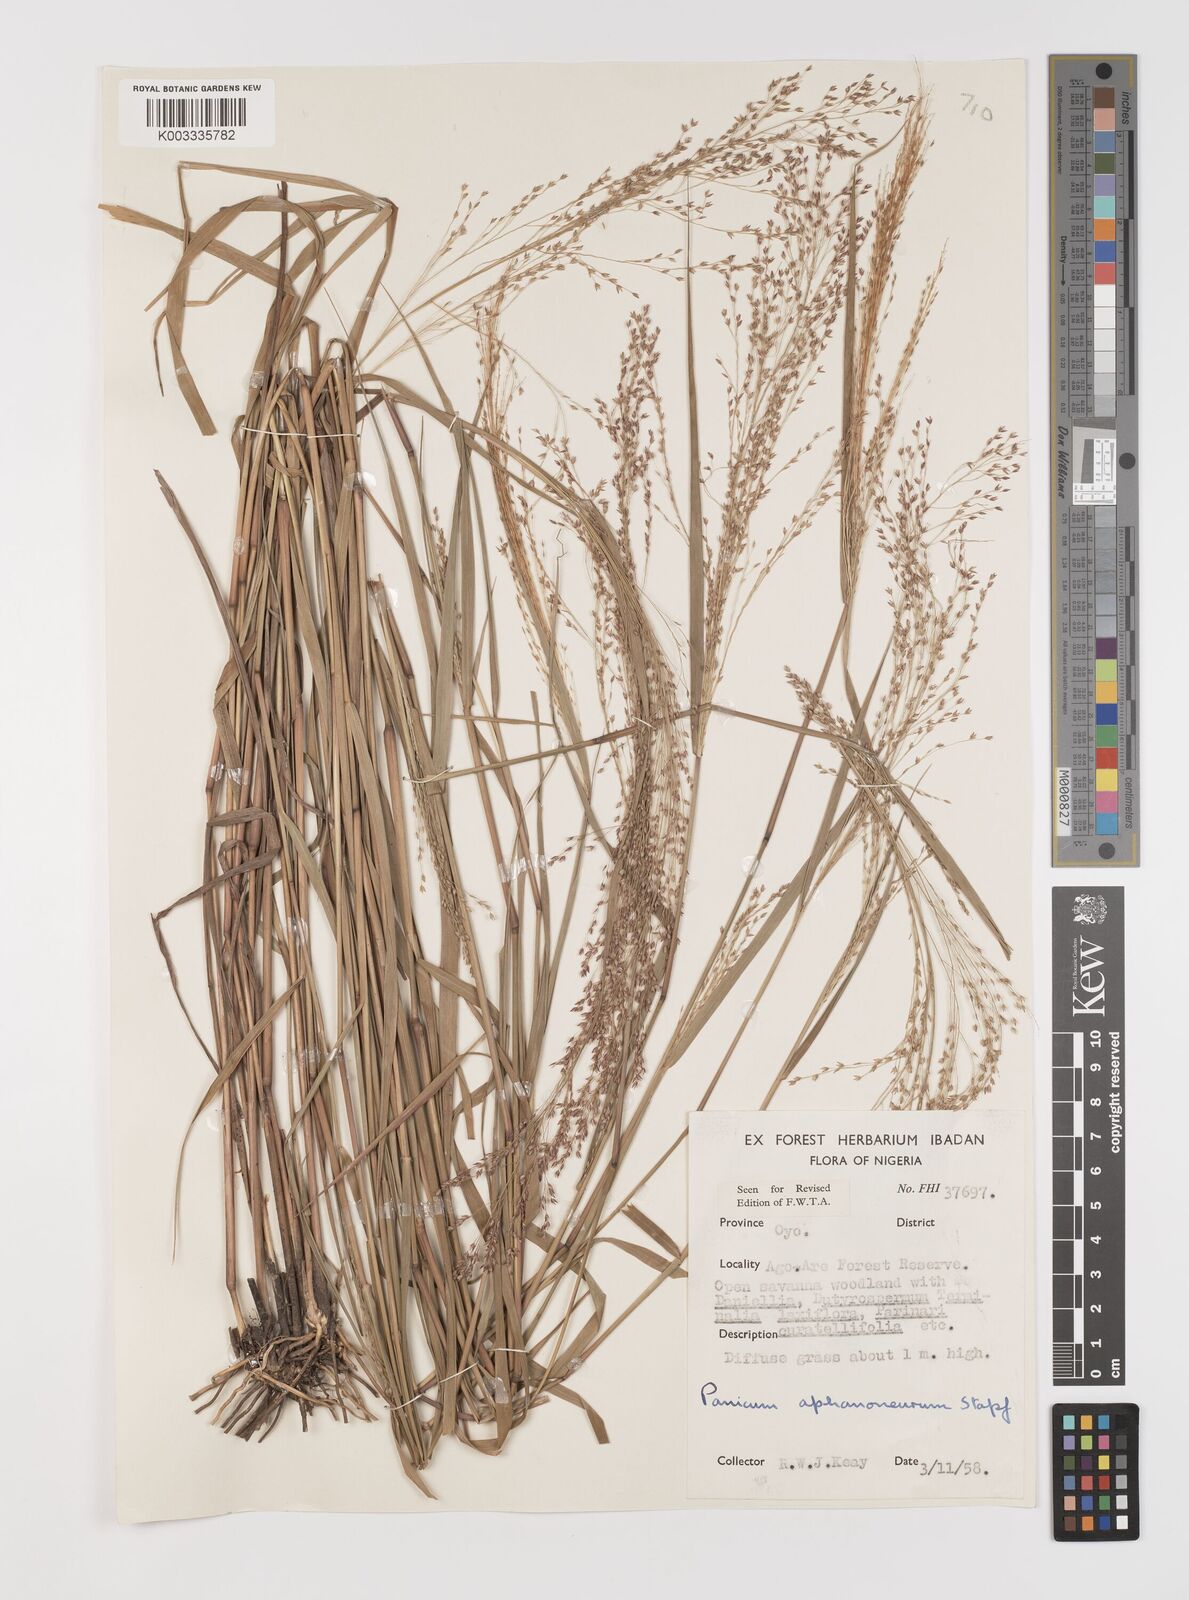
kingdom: Plantae
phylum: Tracheophyta
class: Liliopsida
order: Poales
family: Poaceae
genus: Panicum
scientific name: Panicum fluviicola
